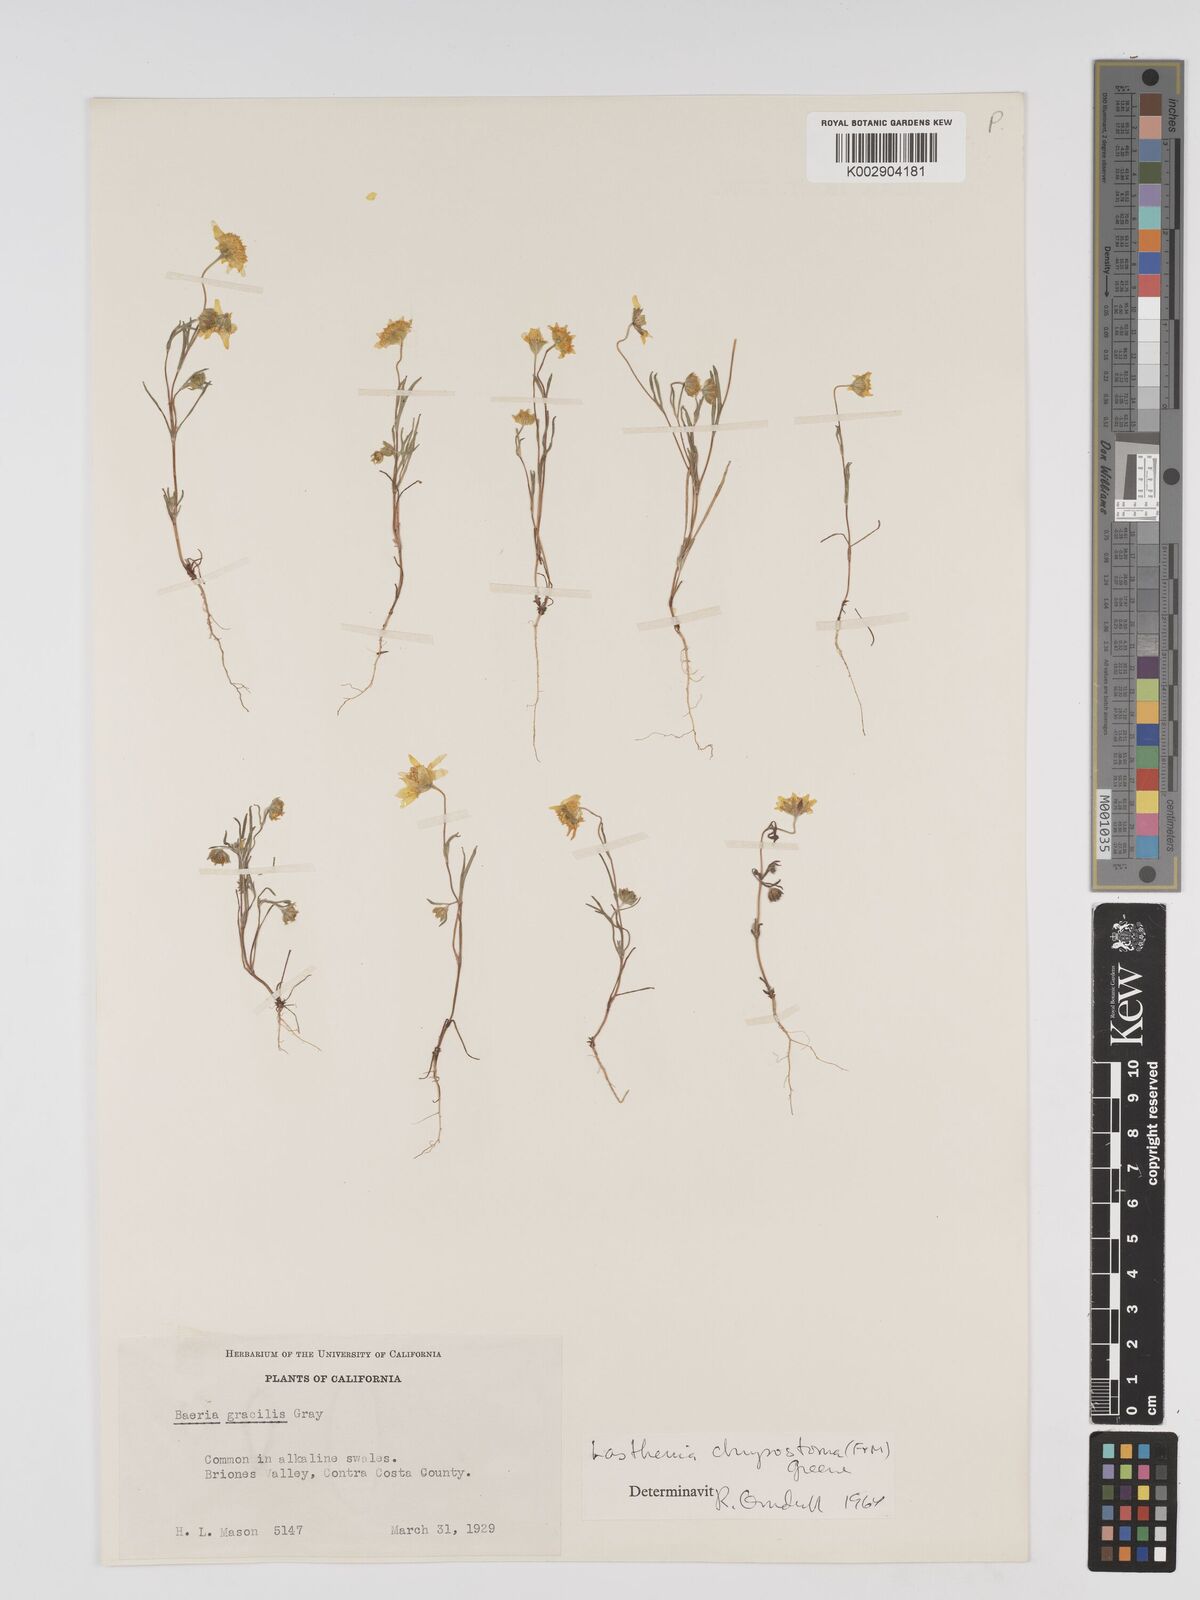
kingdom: Plantae
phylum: Tracheophyta
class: Magnoliopsida
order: Asterales
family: Asteraceae
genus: Lasthenia
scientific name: Lasthenia californica
